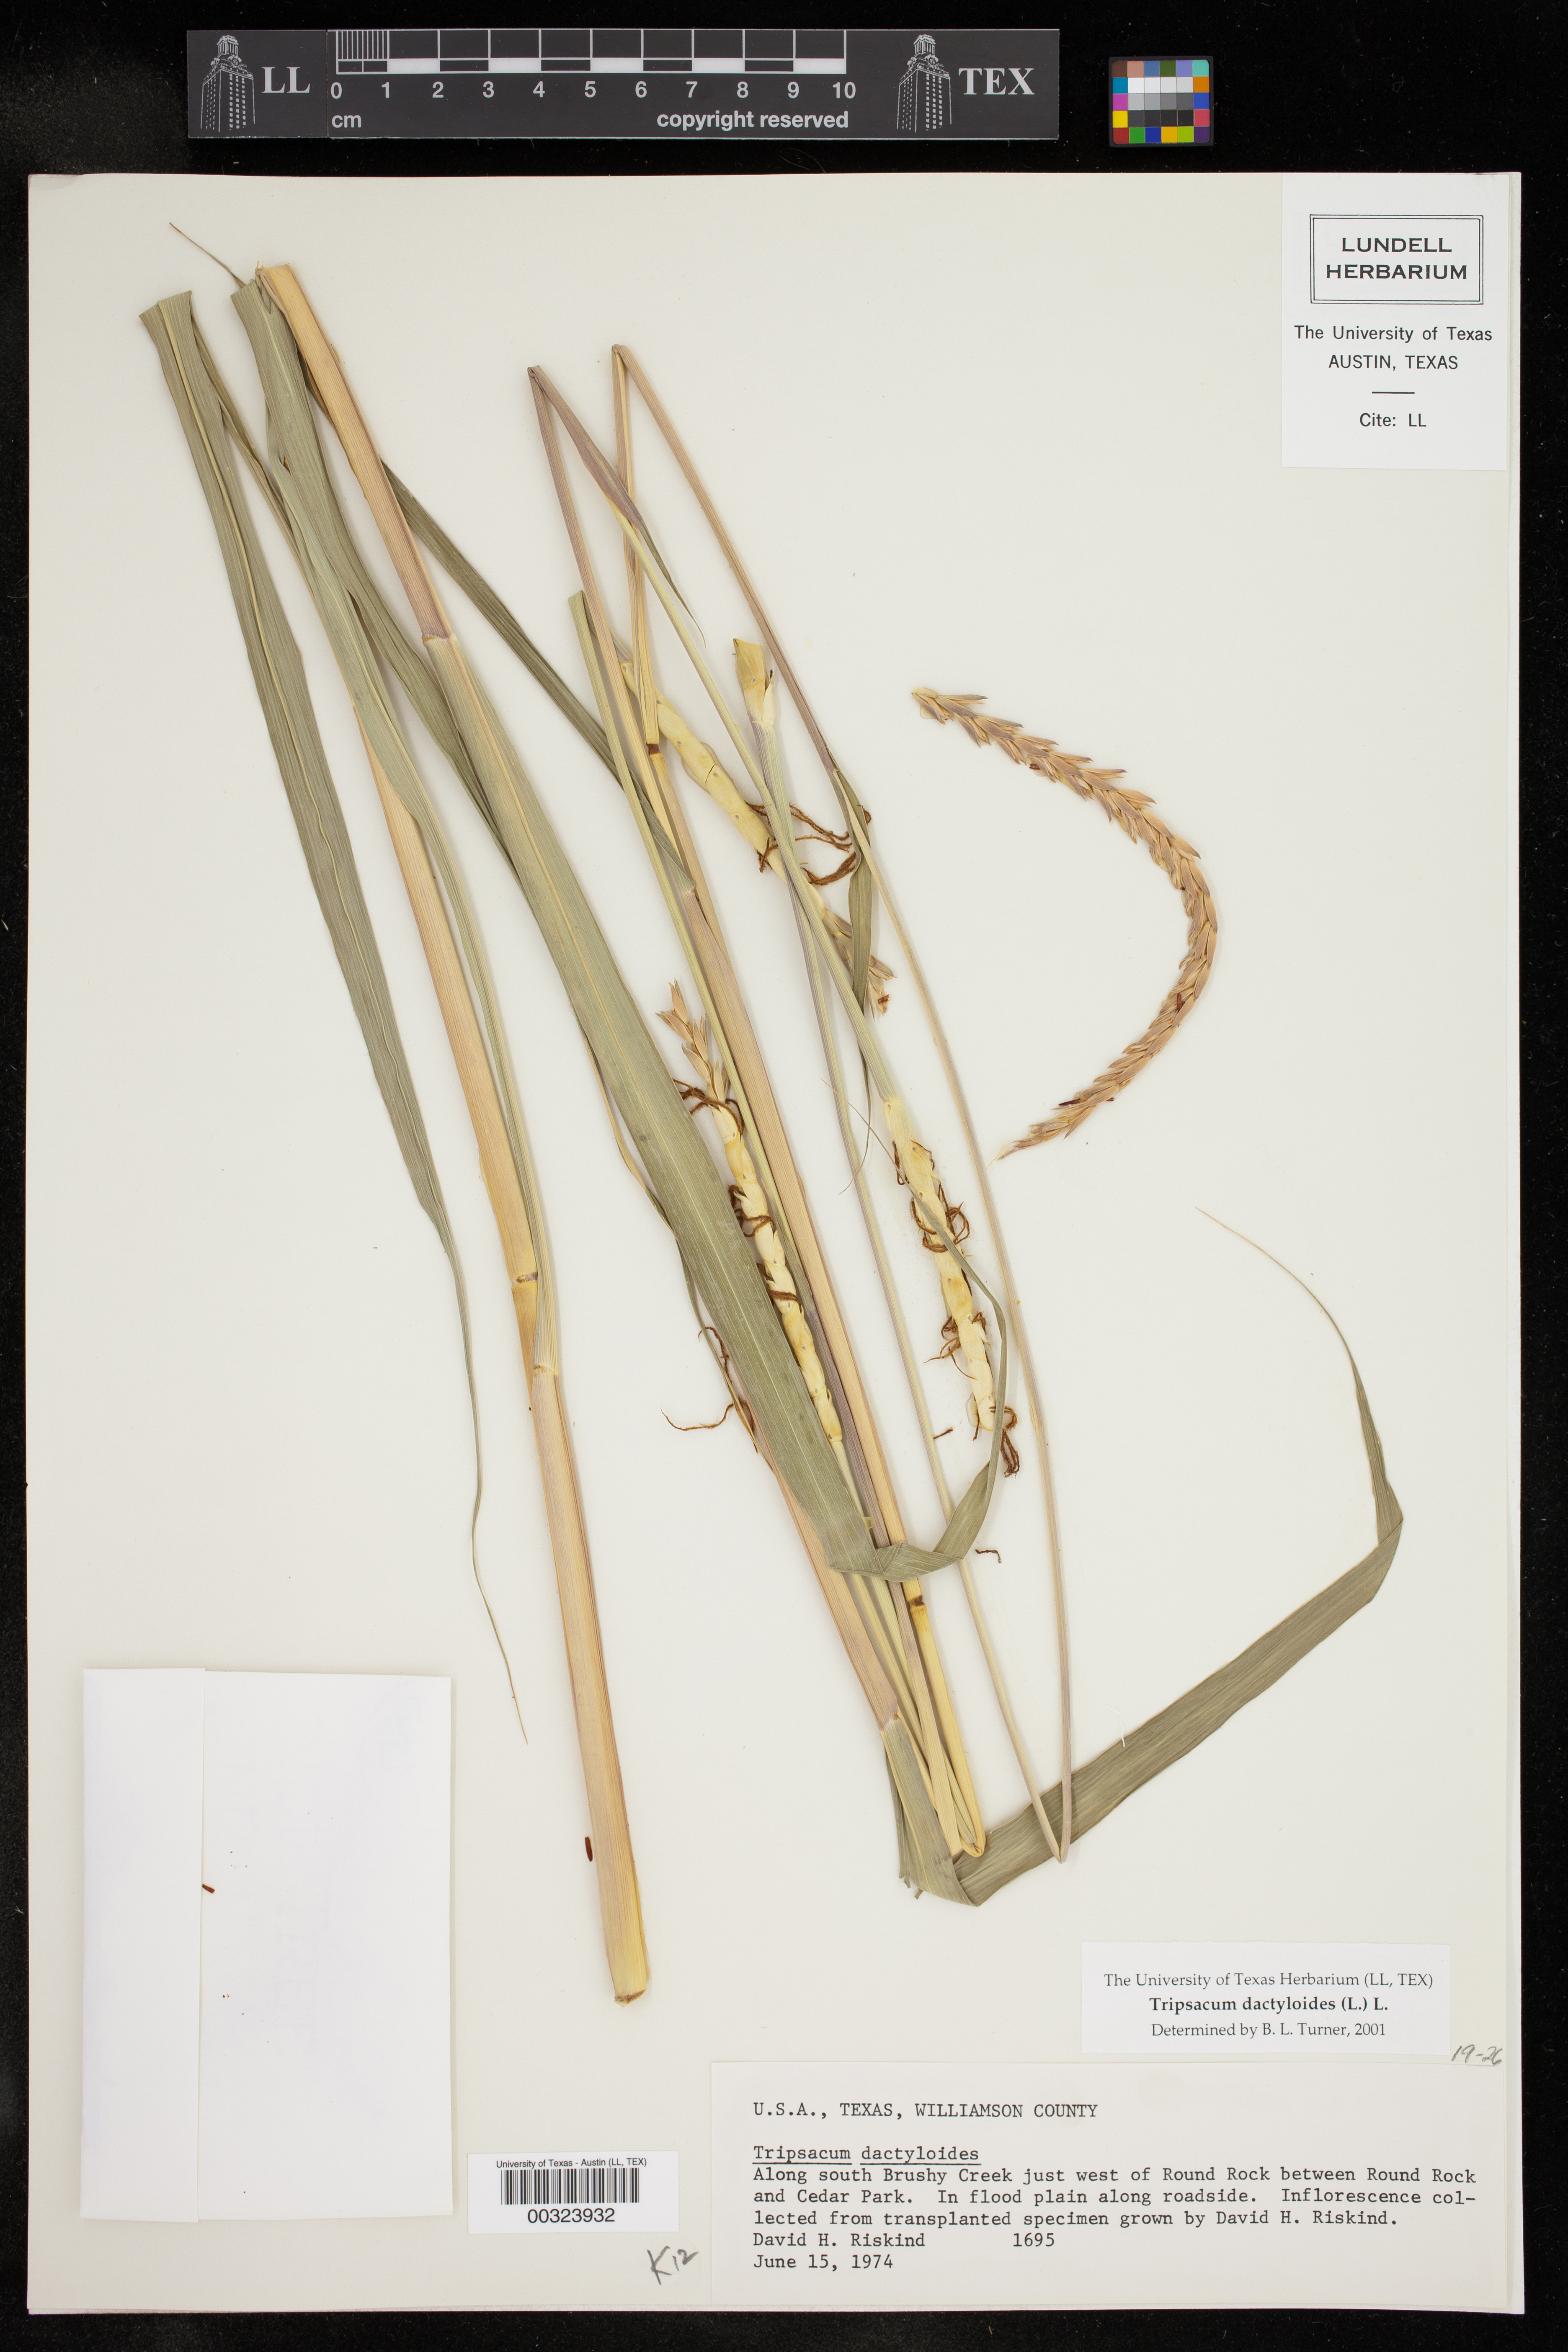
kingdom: Plantae
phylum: Tracheophyta
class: Liliopsida
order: Poales
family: Poaceae
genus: Tripsacum
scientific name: Tripsacum dactyloides
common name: Buffalo-grass
